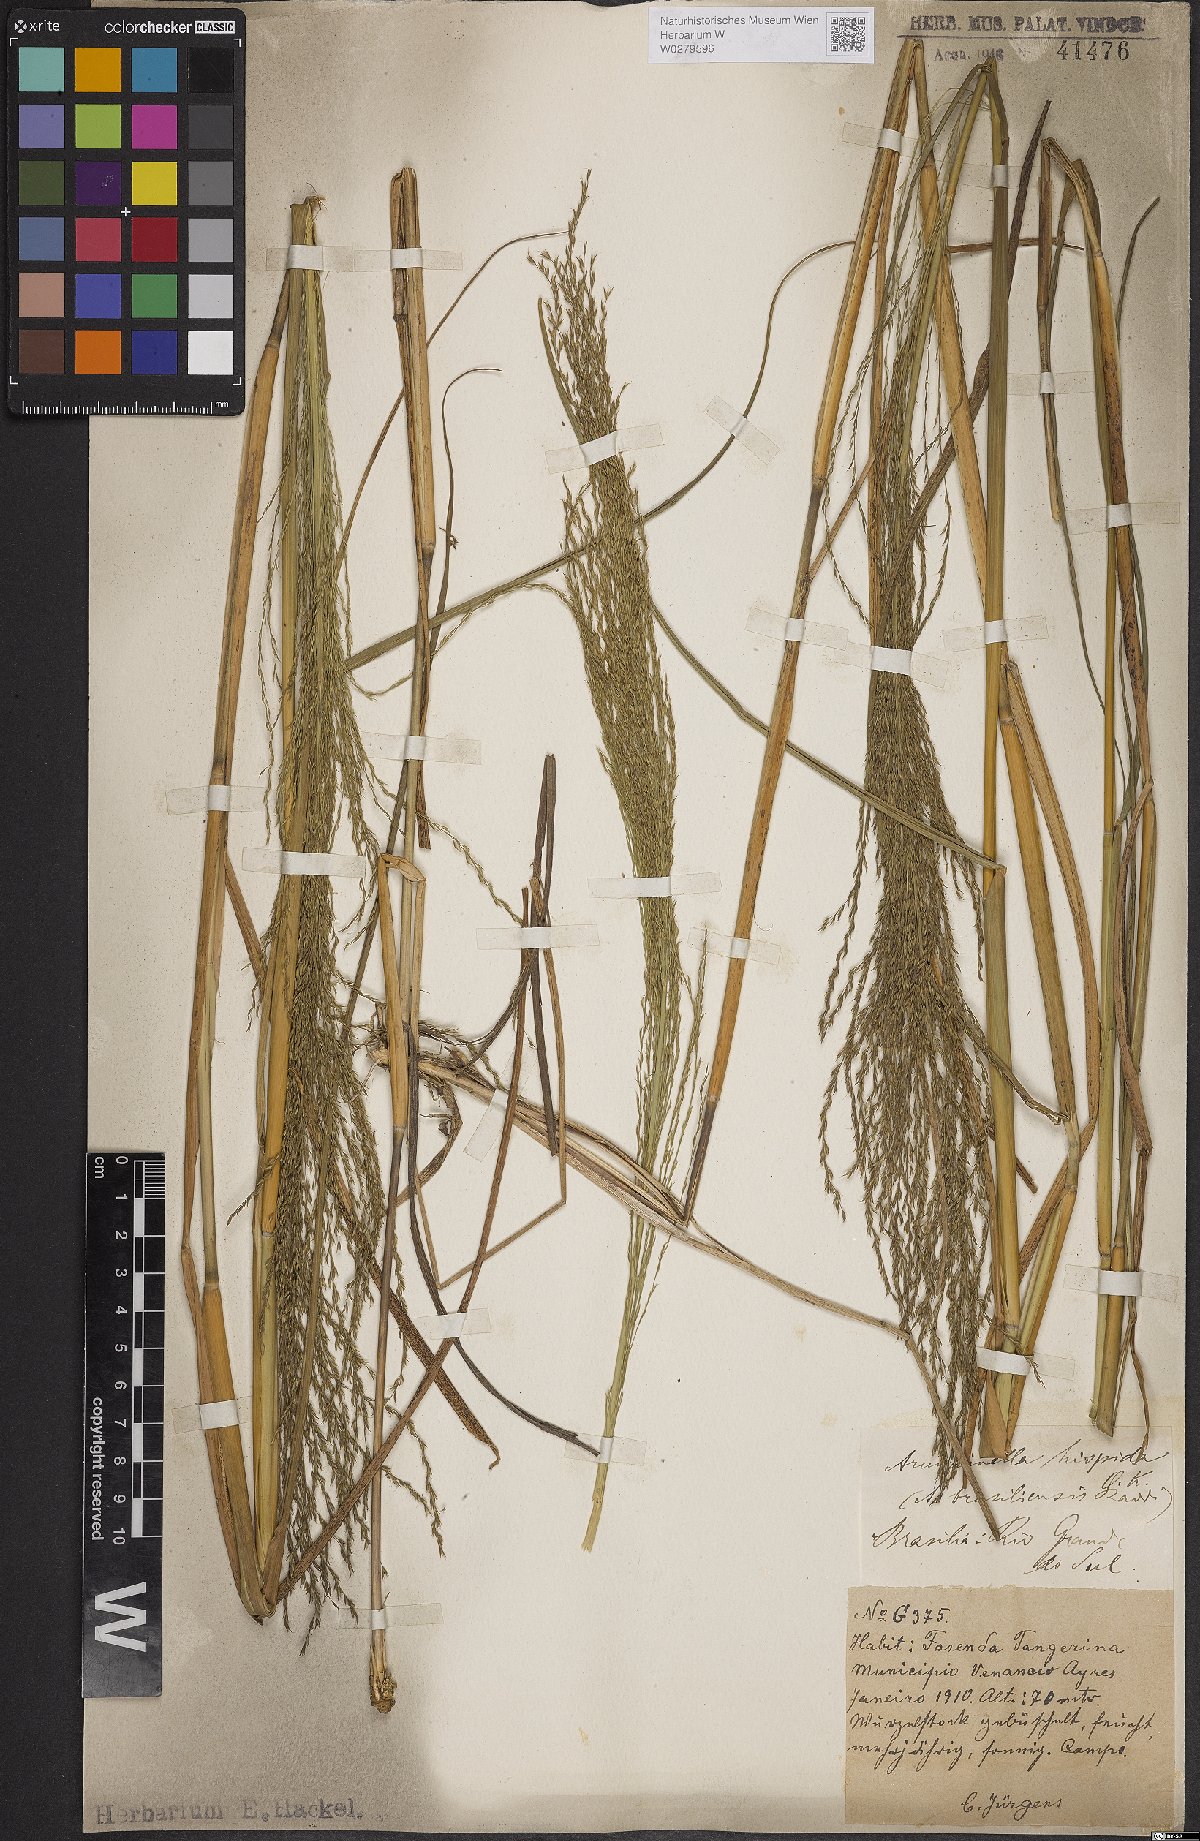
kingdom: Plantae
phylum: Tracheophyta
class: Liliopsida
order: Poales
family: Poaceae
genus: Arundinella
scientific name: Arundinella hispida
